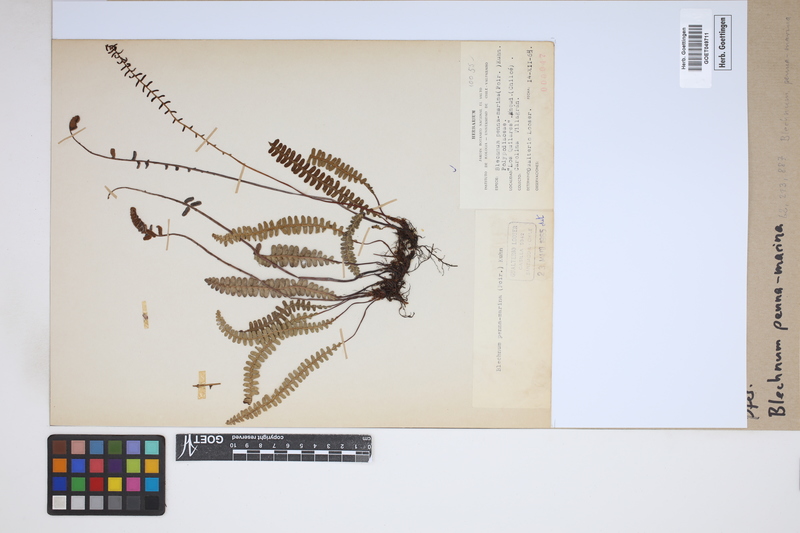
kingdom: Plantae
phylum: Tracheophyta
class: Polypodiopsida
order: Polypodiales
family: Blechnaceae
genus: Austroblechnum
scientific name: Austroblechnum penna-marina
